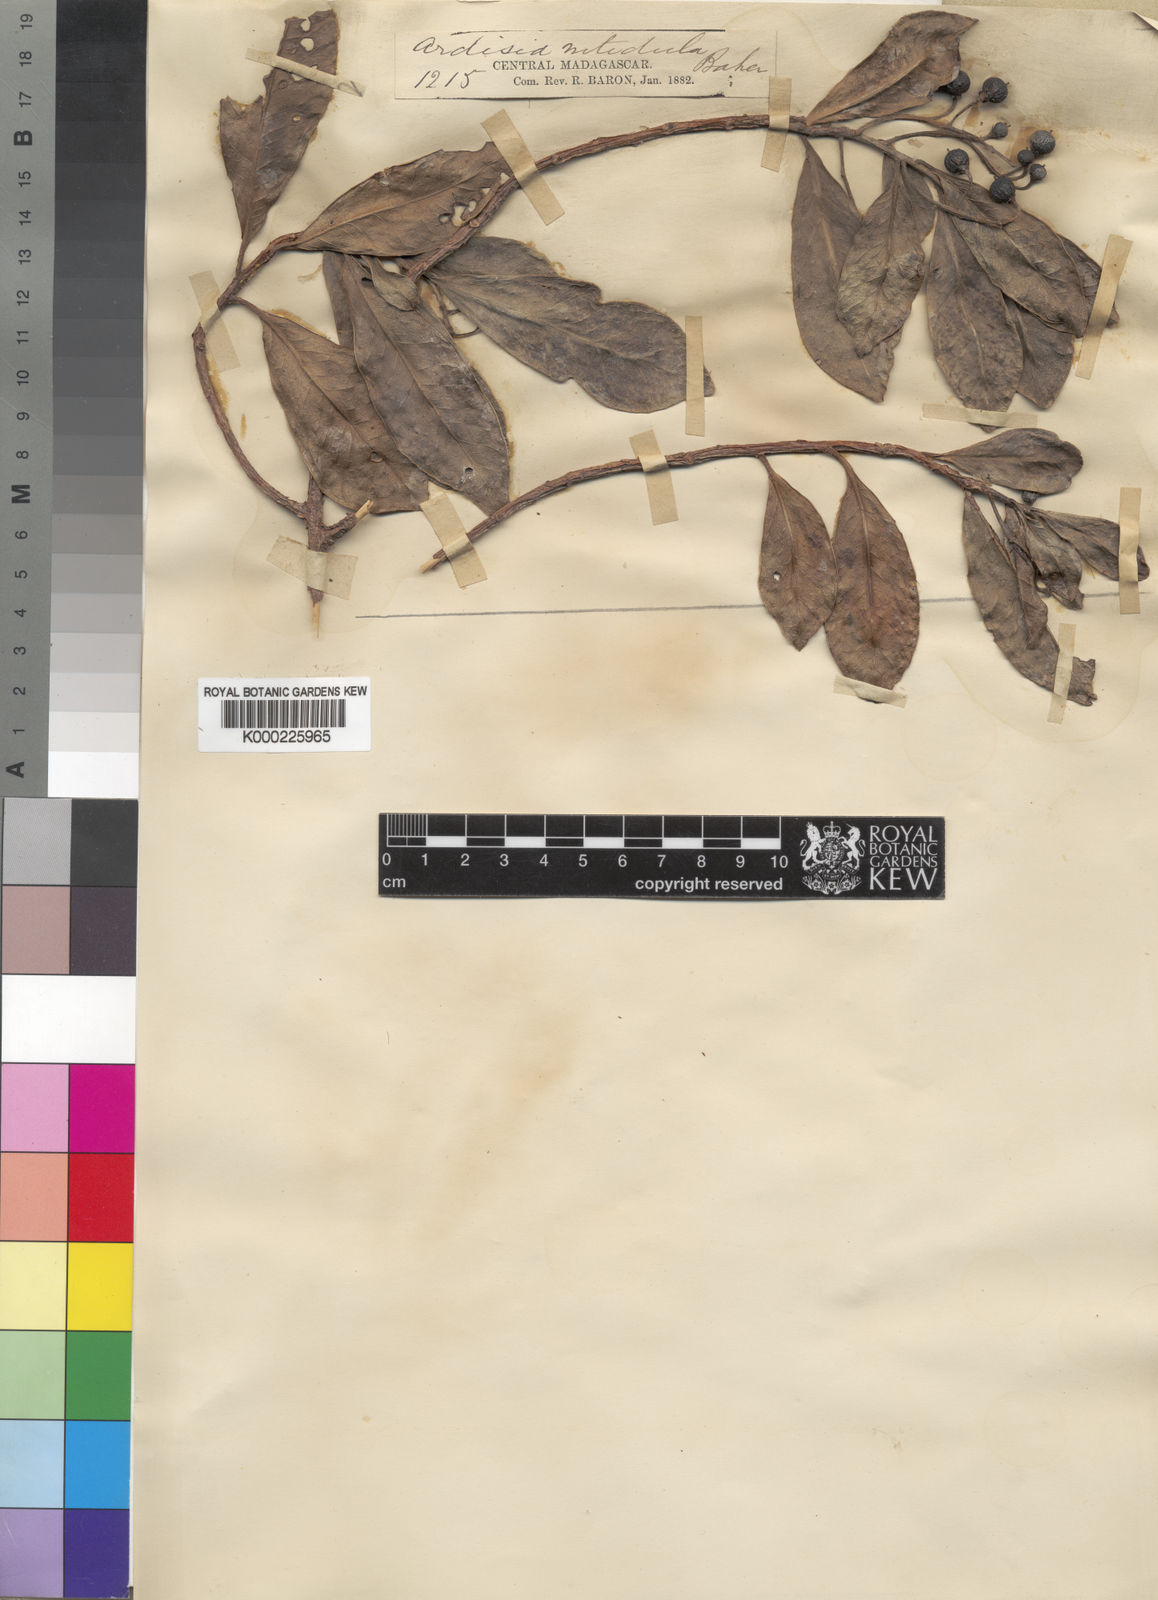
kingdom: Plantae
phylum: Tracheophyta
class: Magnoliopsida
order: Ericales
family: Primulaceae
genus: Oncostemum
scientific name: Oncostemum nitidulum
